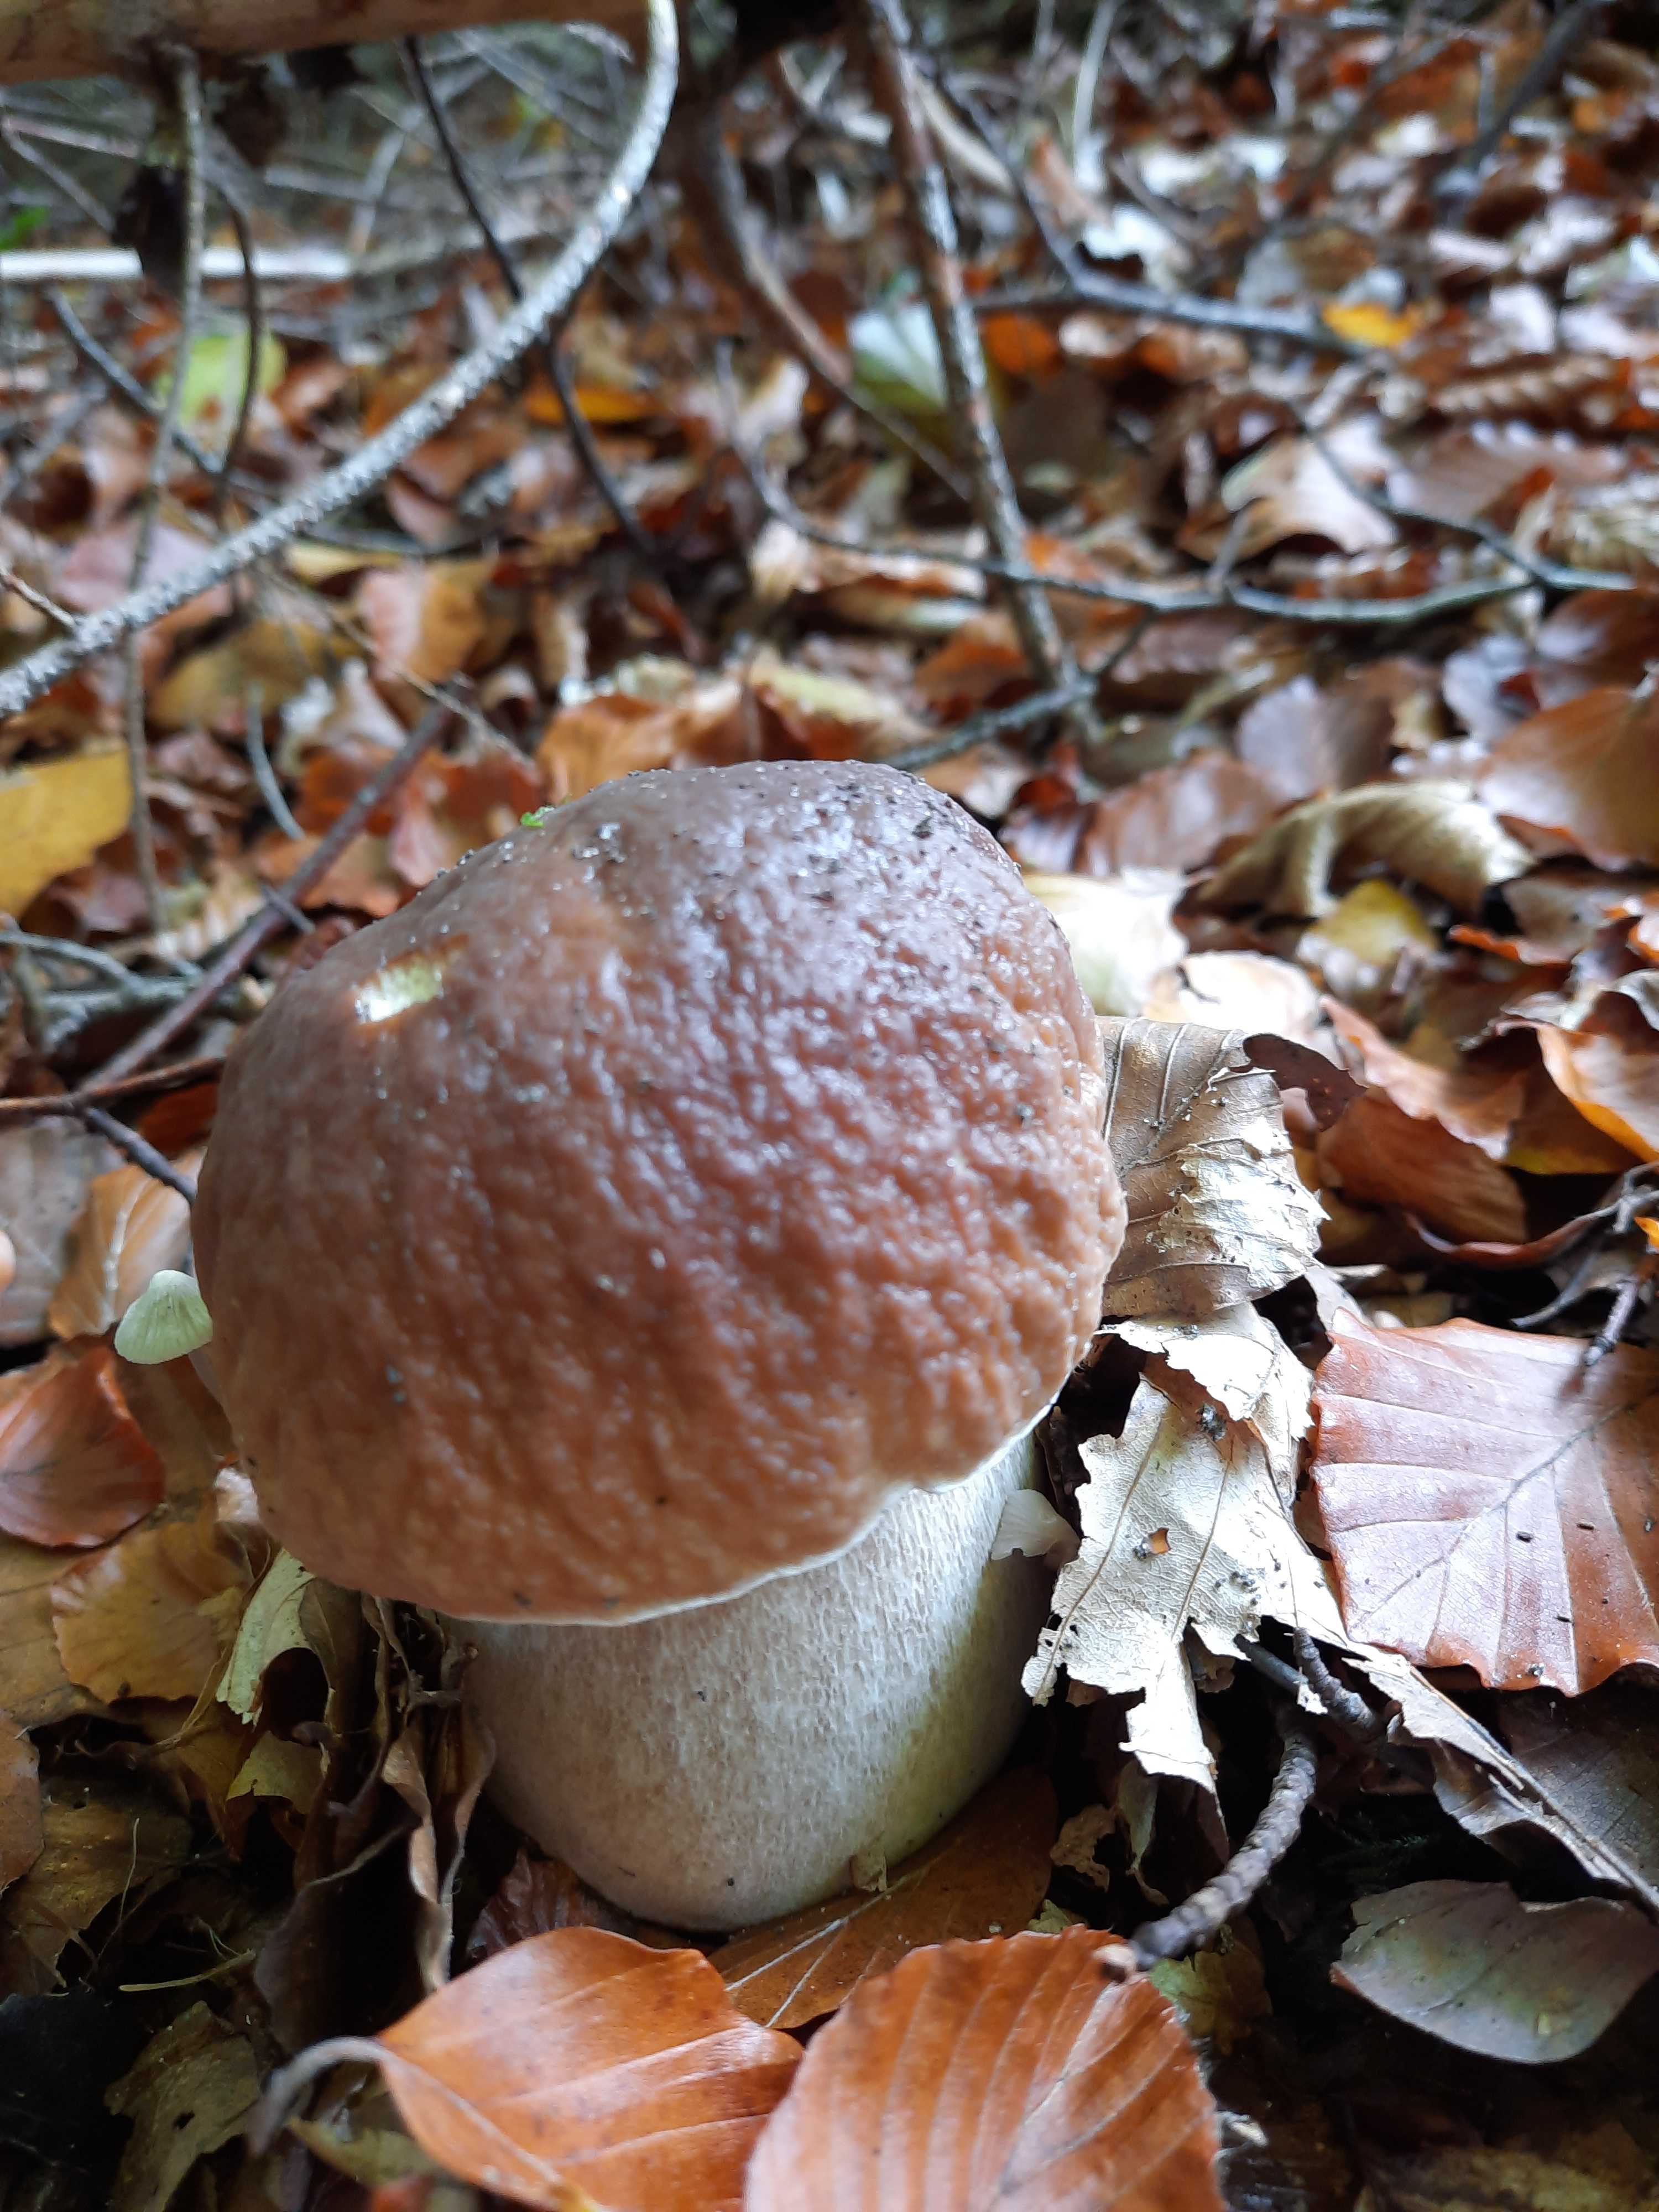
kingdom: Fungi
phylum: Basidiomycota
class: Agaricomycetes
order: Boletales
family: Boletaceae
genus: Boletus
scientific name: Boletus edulis
